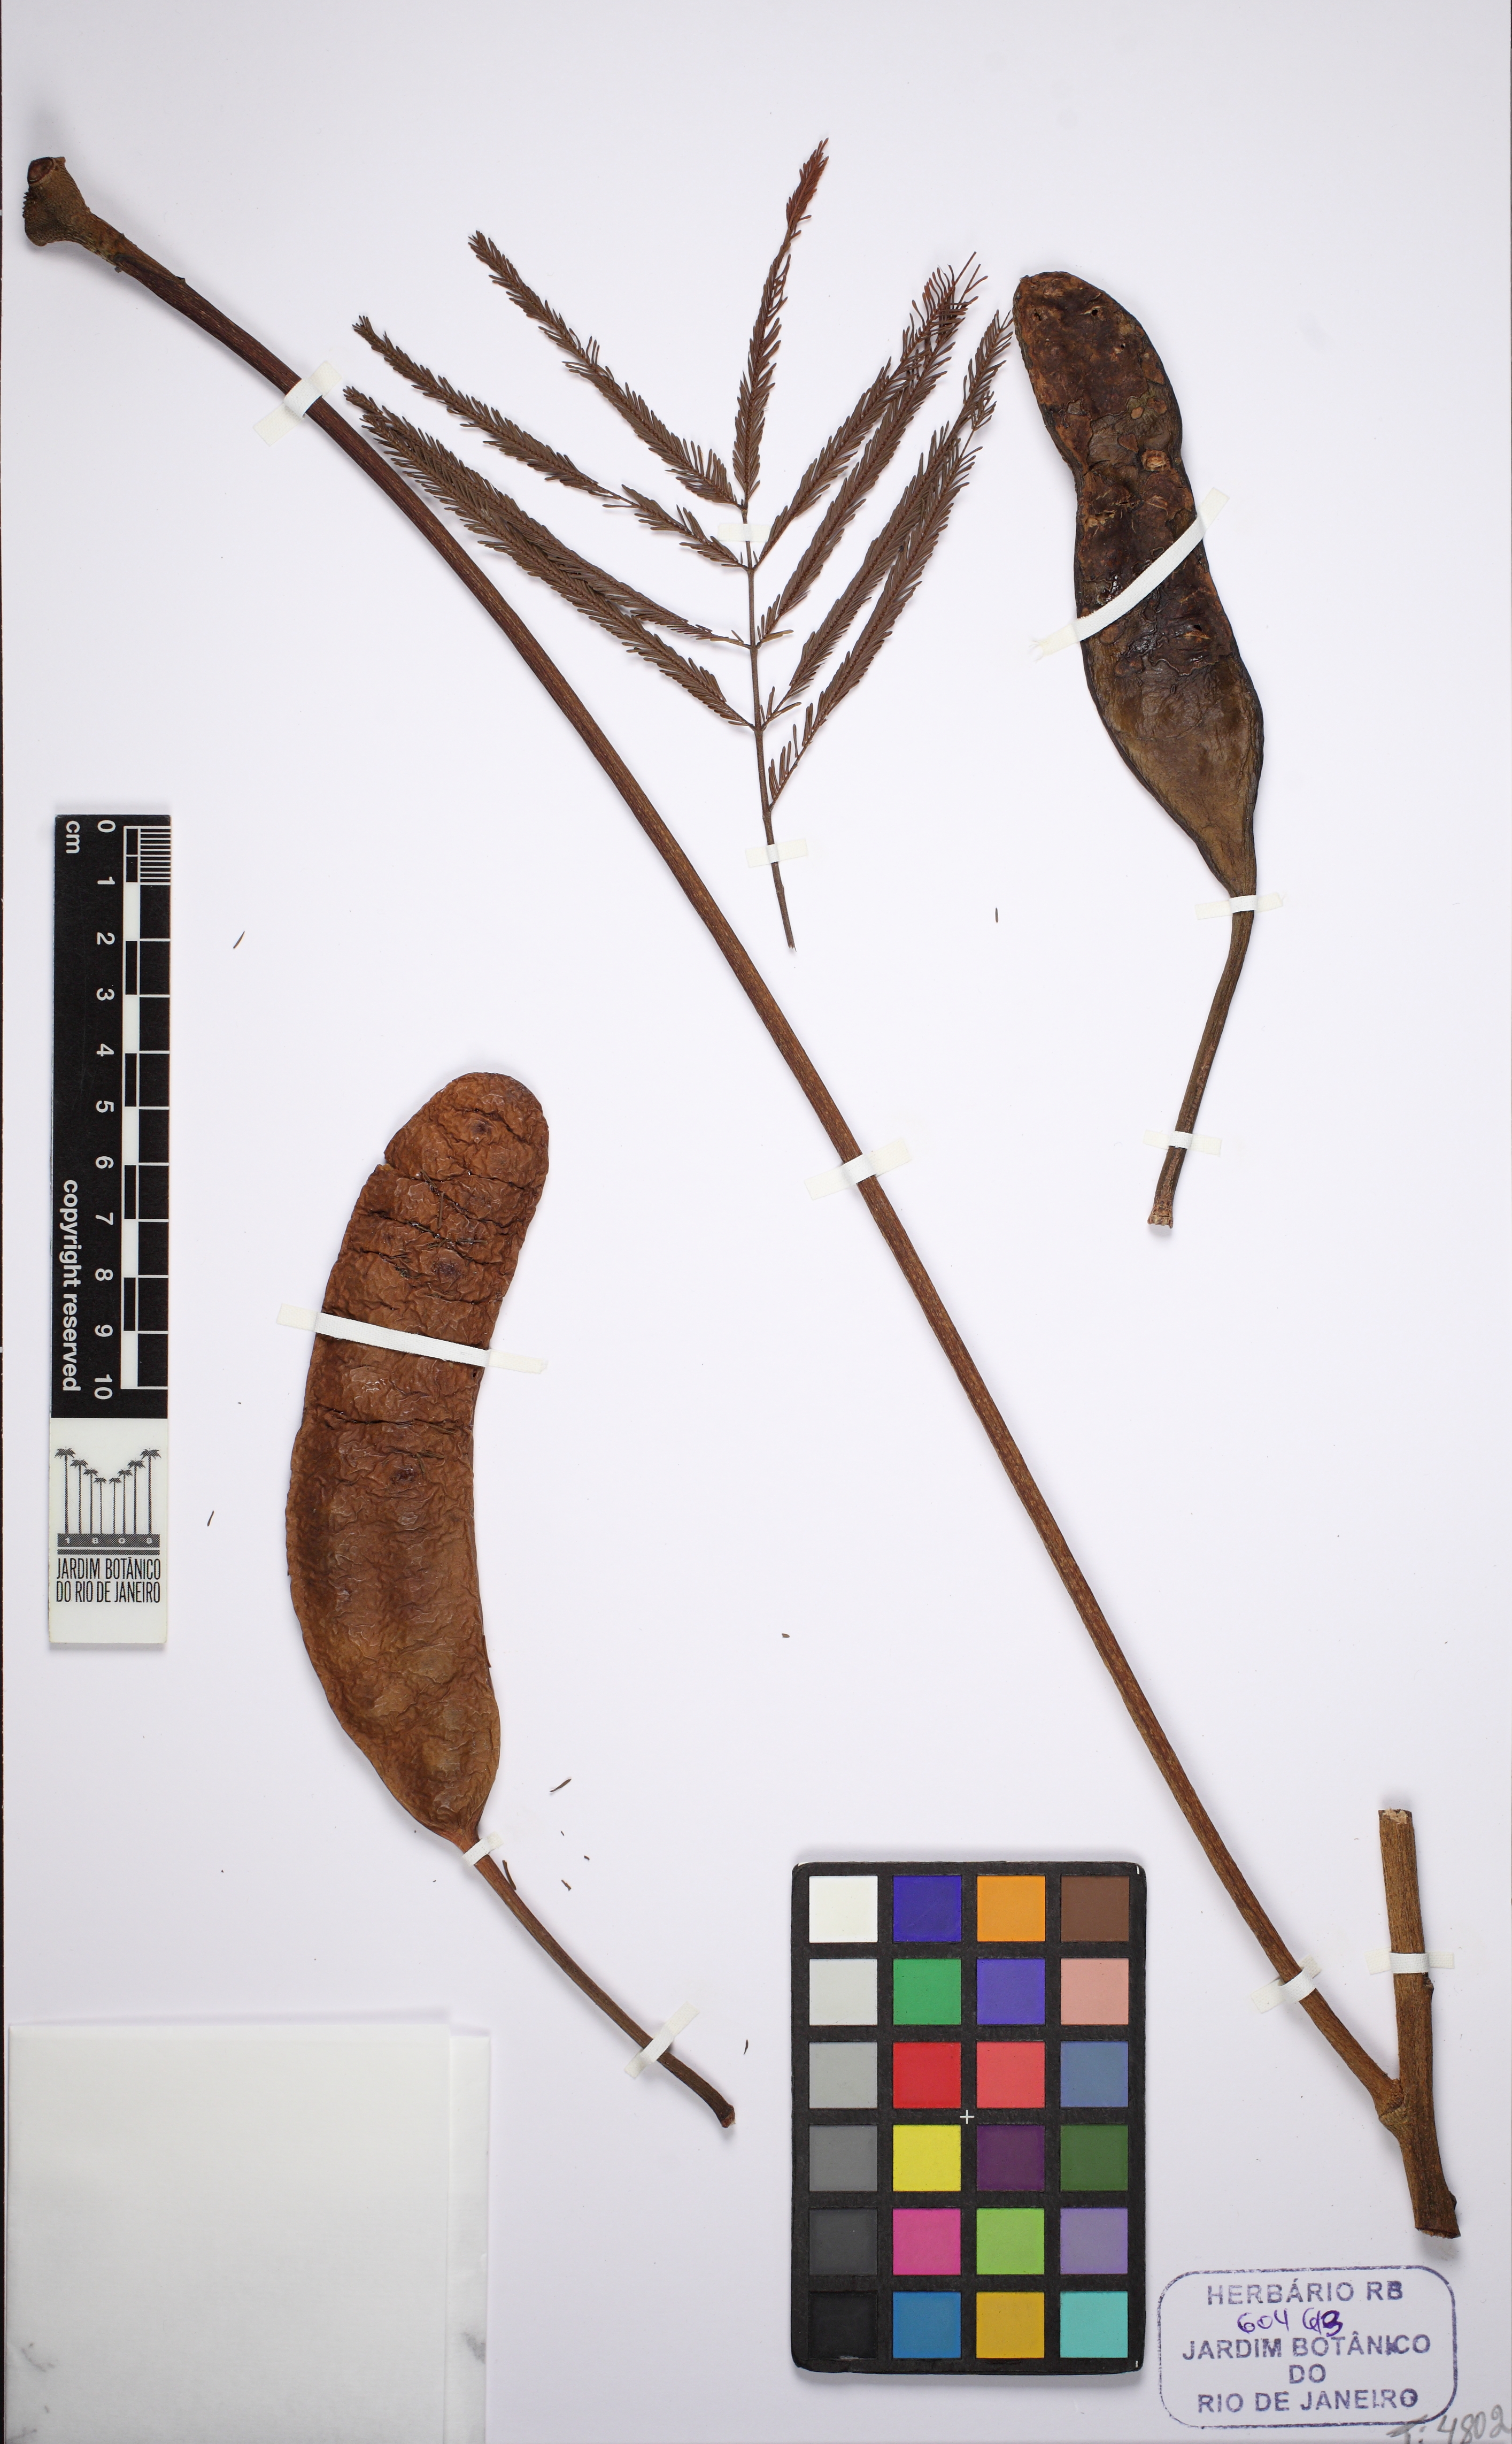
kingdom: Plantae
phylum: Tracheophyta
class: Magnoliopsida
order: Fabales
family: Fabaceae
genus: Parkia
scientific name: Parkia platycephala
